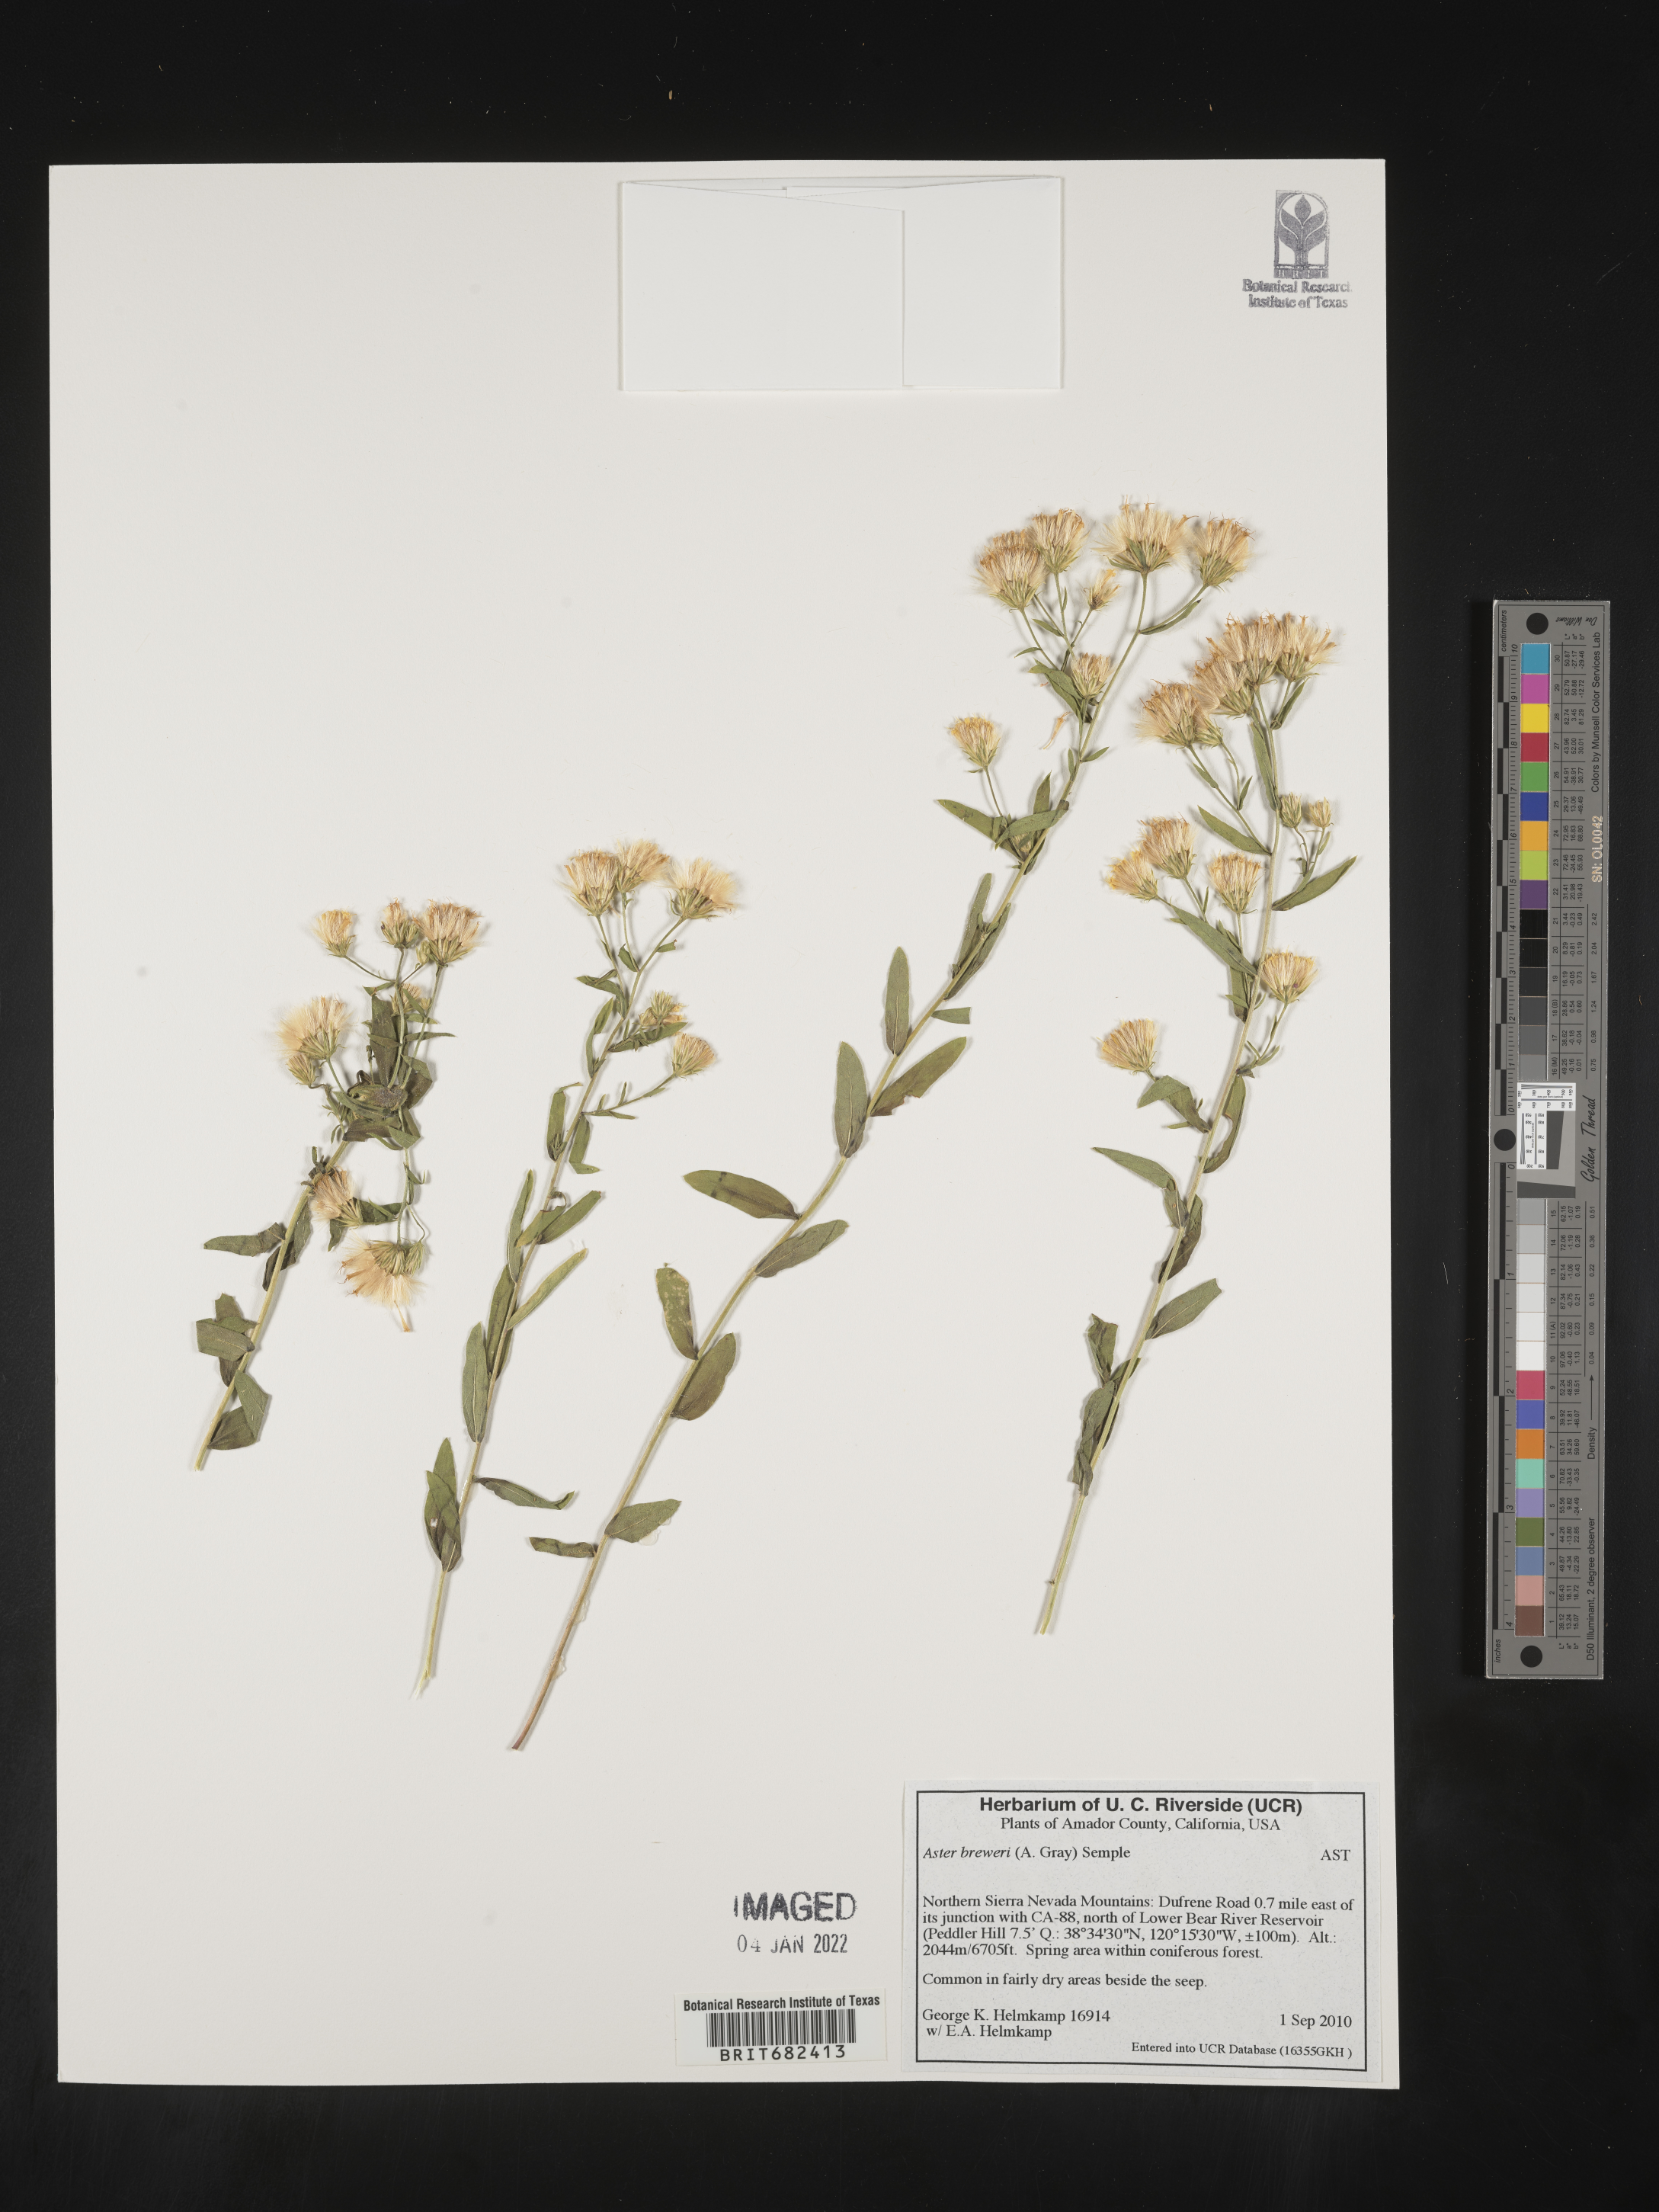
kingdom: Plantae
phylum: Tracheophyta
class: Magnoliopsida
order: Asterales
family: Asteraceae
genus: Aster
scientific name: Aster
